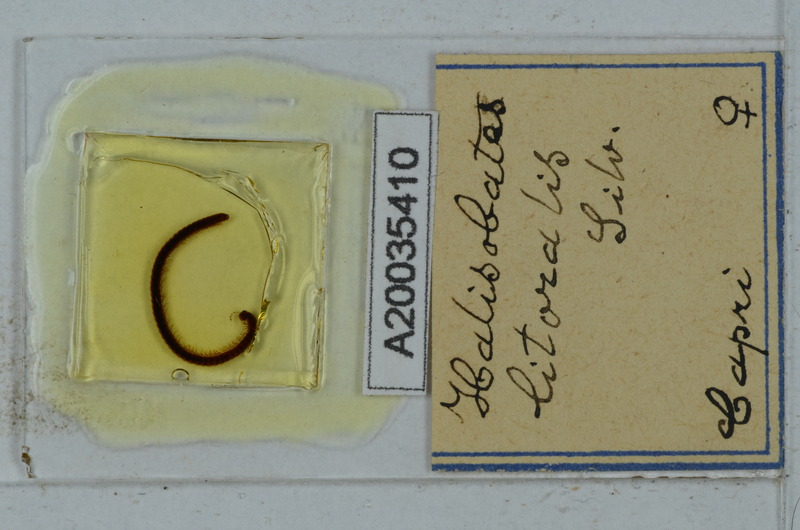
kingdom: Animalia
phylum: Arthropoda
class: Diplopoda
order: Julida
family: Nemasomatidae
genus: Thalassisobates
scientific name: Thalassisobates littoralis
